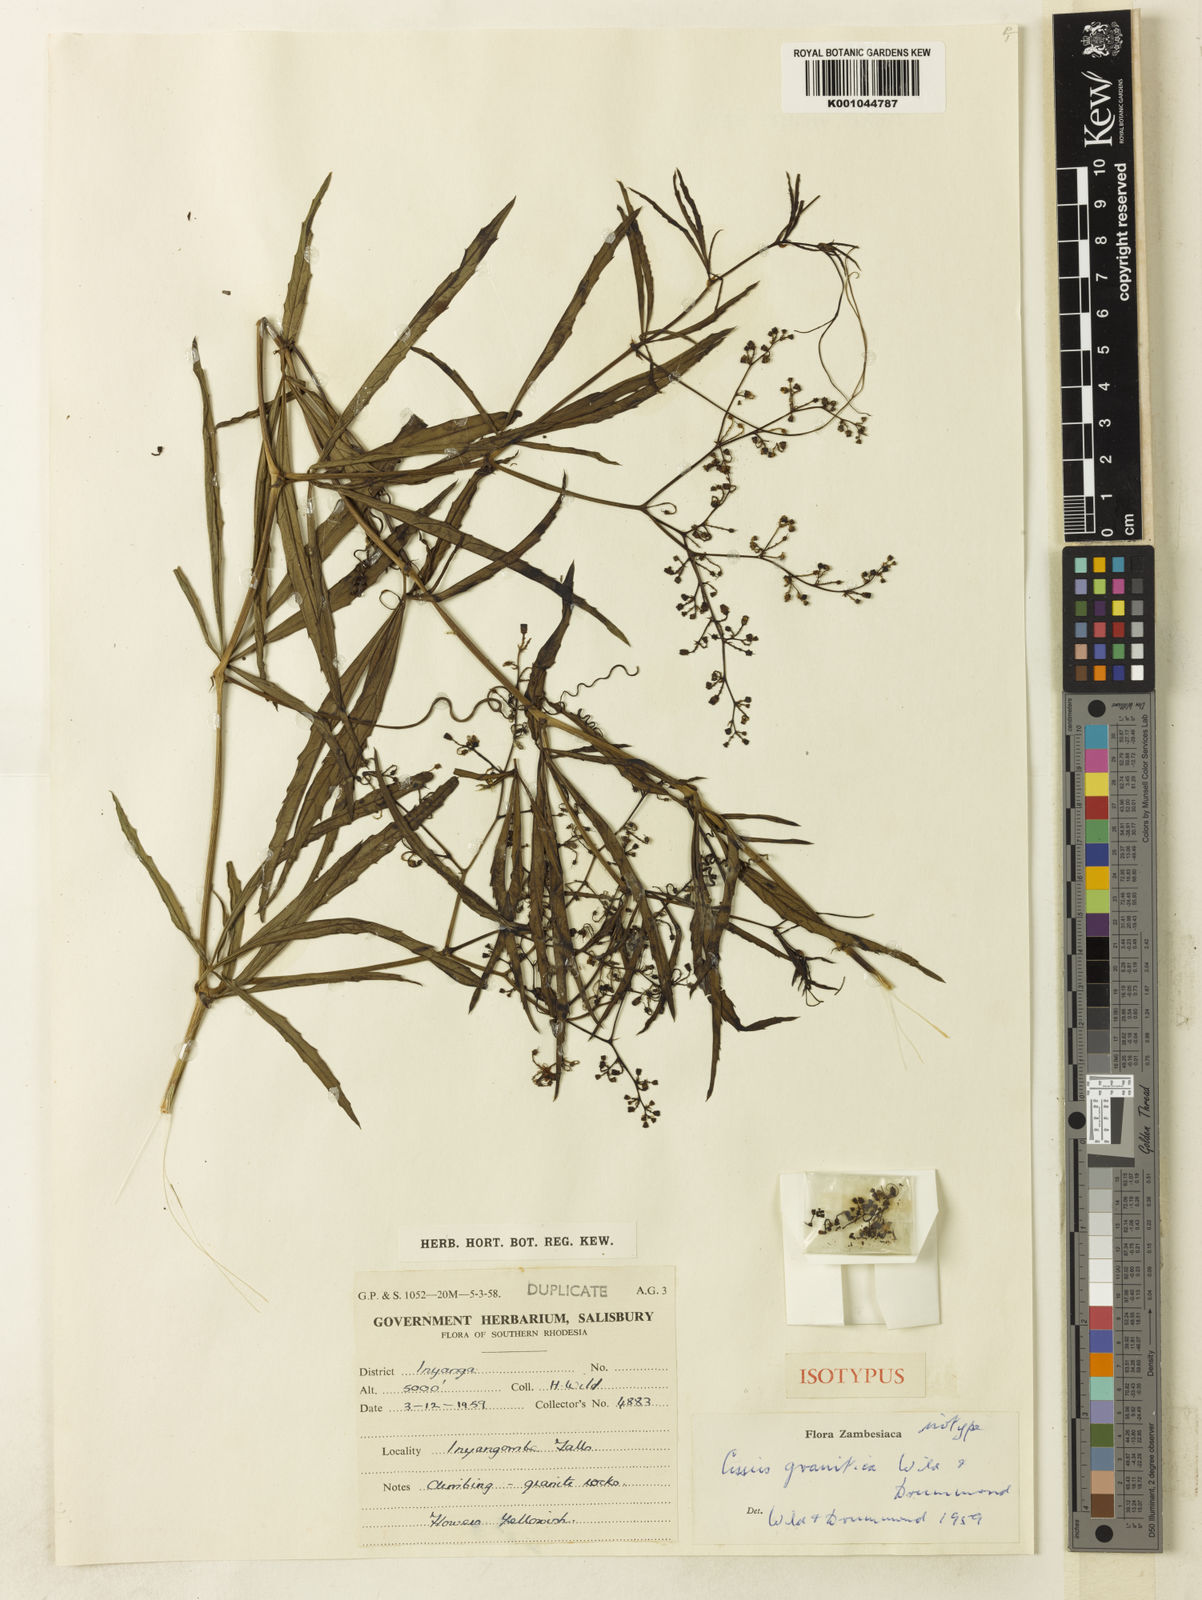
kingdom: Plantae
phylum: Tracheophyta
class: Magnoliopsida
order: Vitales
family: Vitaceae
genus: Cyphostemma
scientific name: Cyphostemma graniticum
